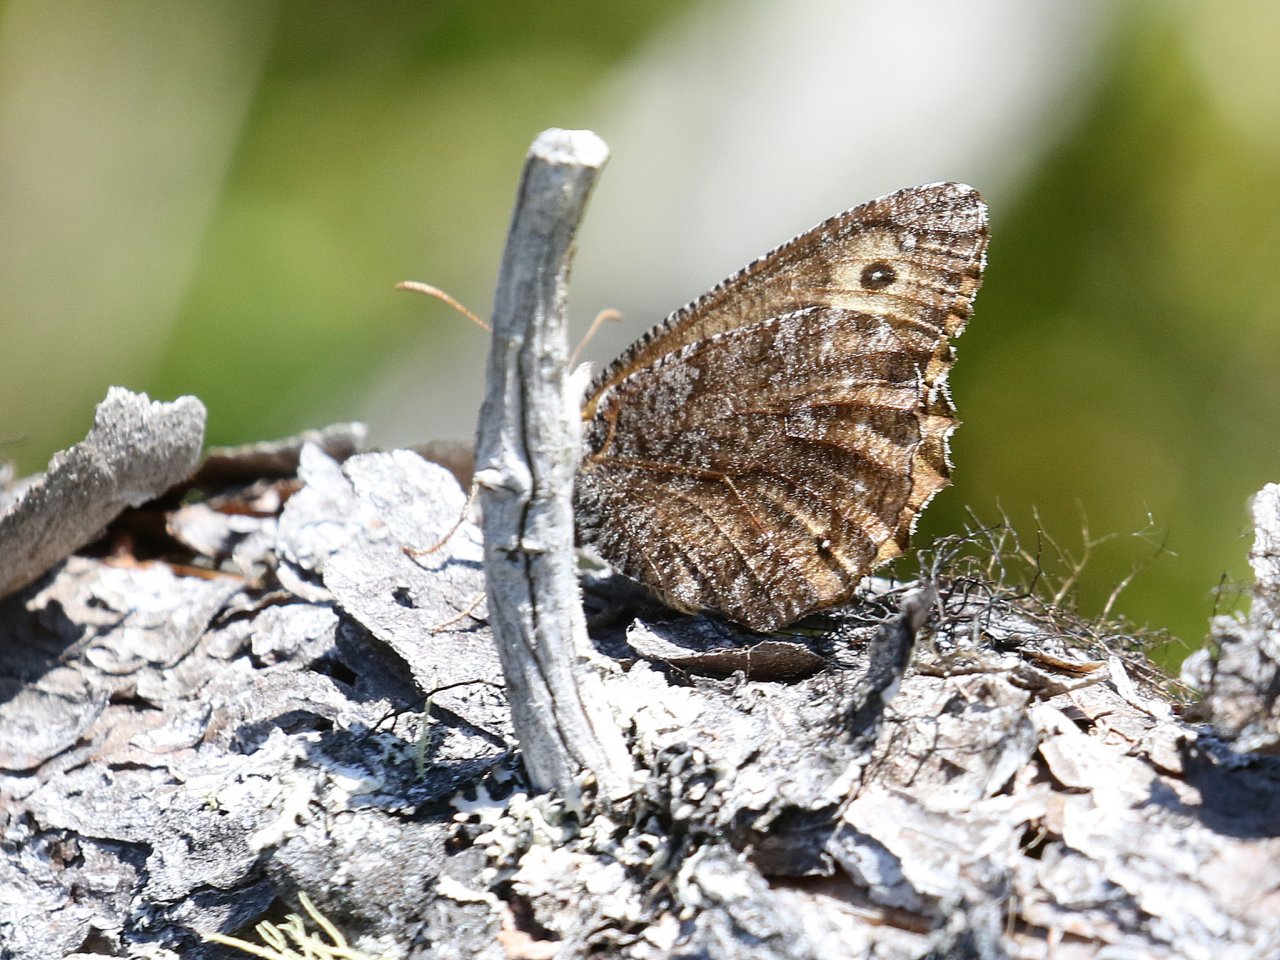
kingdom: Animalia
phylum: Arthropoda
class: Insecta
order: Lepidoptera
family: Nymphalidae
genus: Oeneis
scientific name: Oeneis jutta
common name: Jutta Arctic
